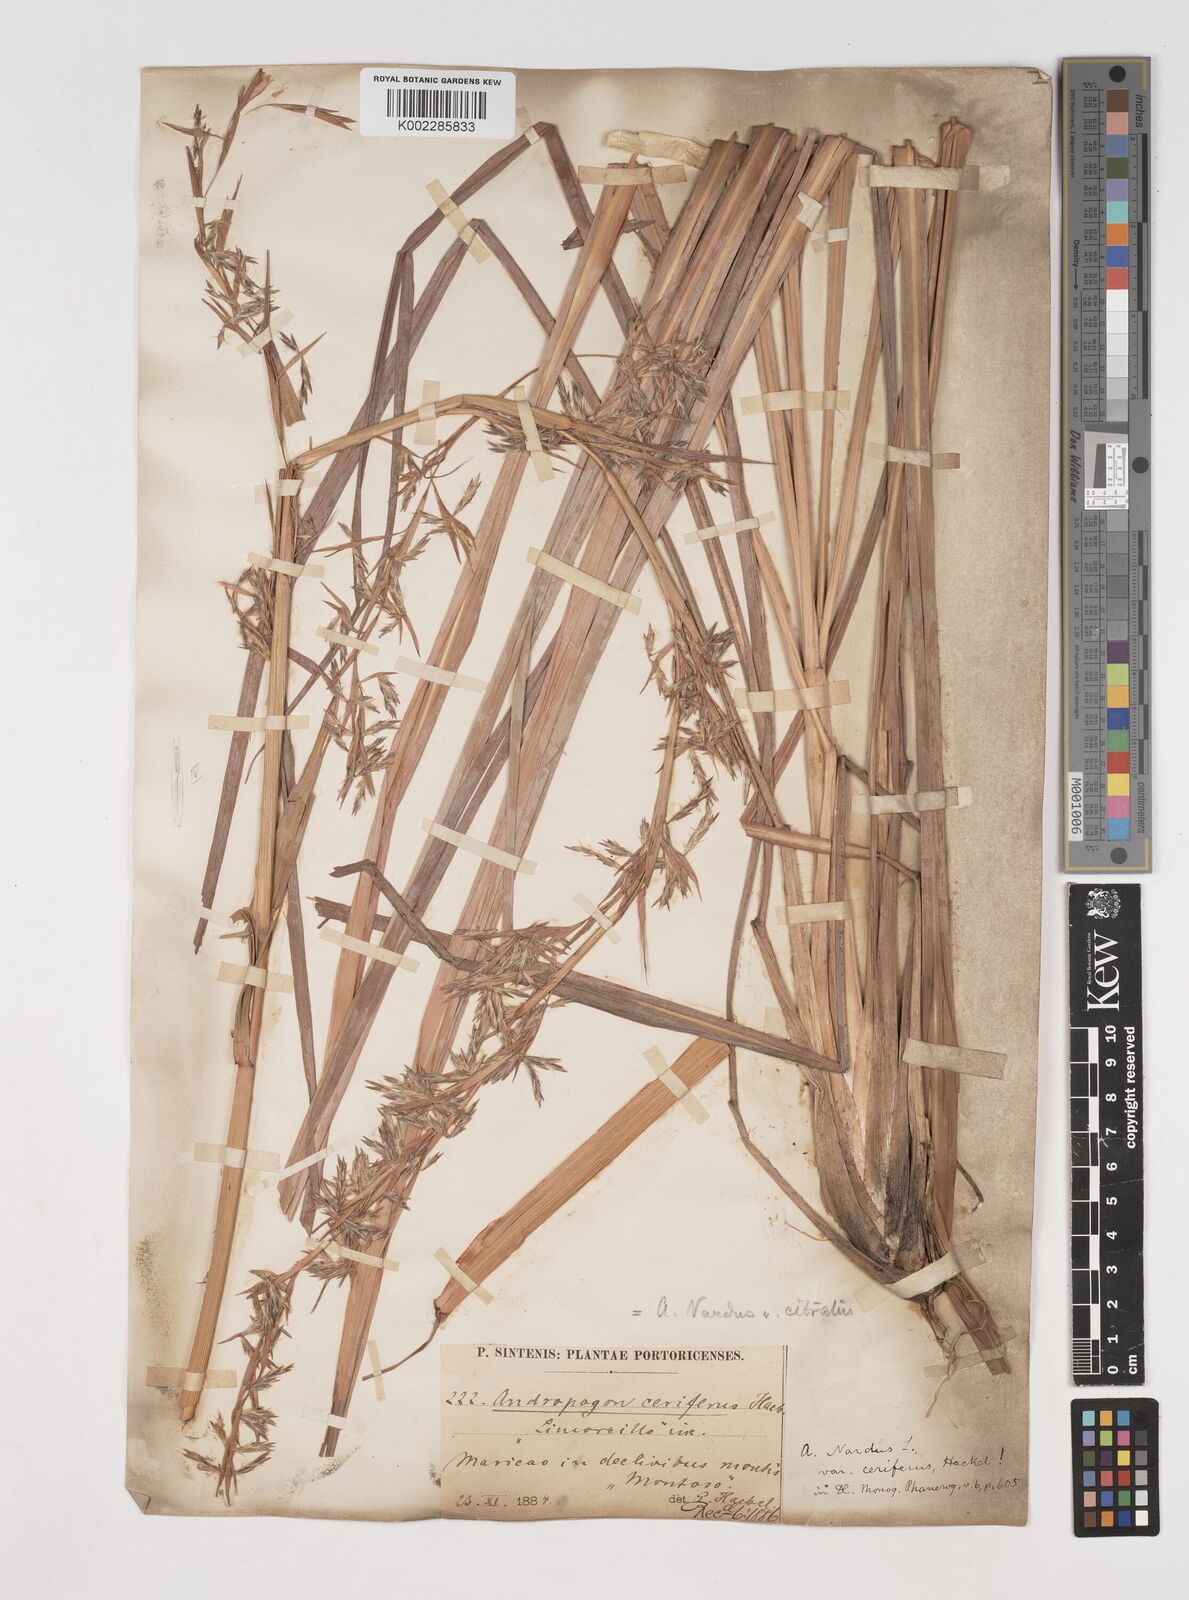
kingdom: Plantae
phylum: Tracheophyta
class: Liliopsida
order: Poales
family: Poaceae
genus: Cymbopogon
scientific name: Cymbopogon citratus
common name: Lemon grass
